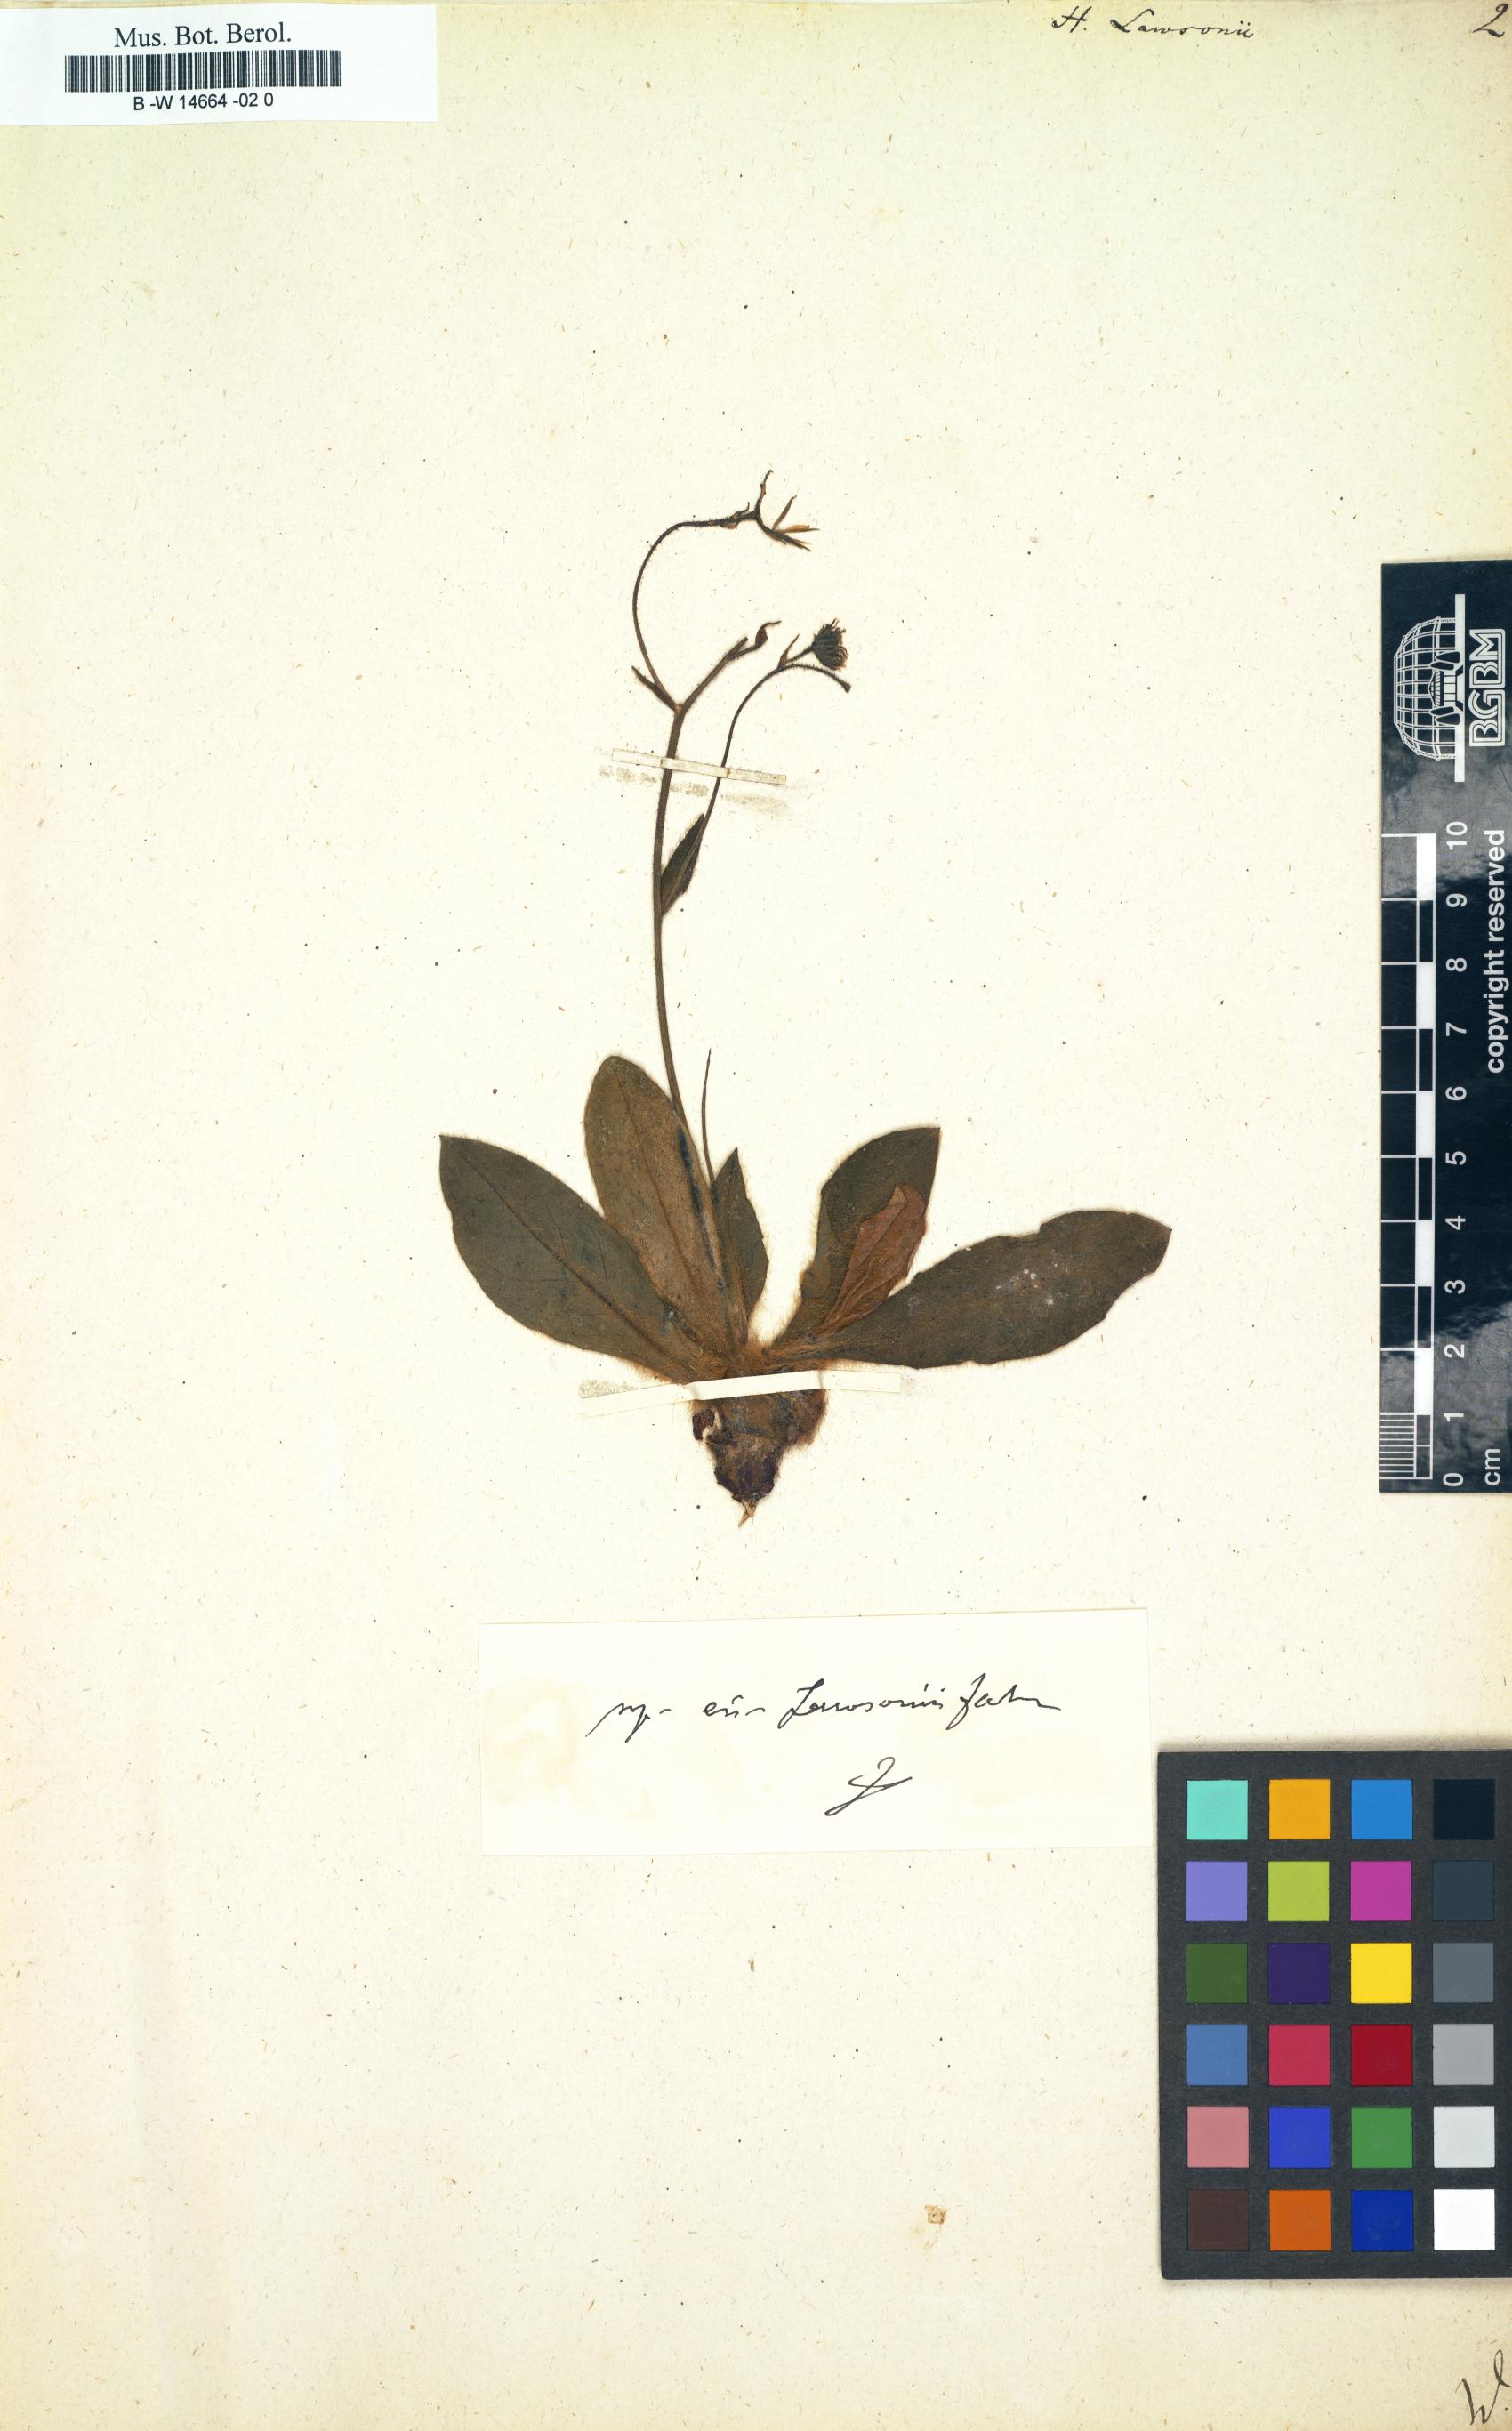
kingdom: Plantae
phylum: Tracheophyta
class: Magnoliopsida
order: Asterales
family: Asteraceae
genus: Hieracium
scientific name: Hieracium lawsonii
